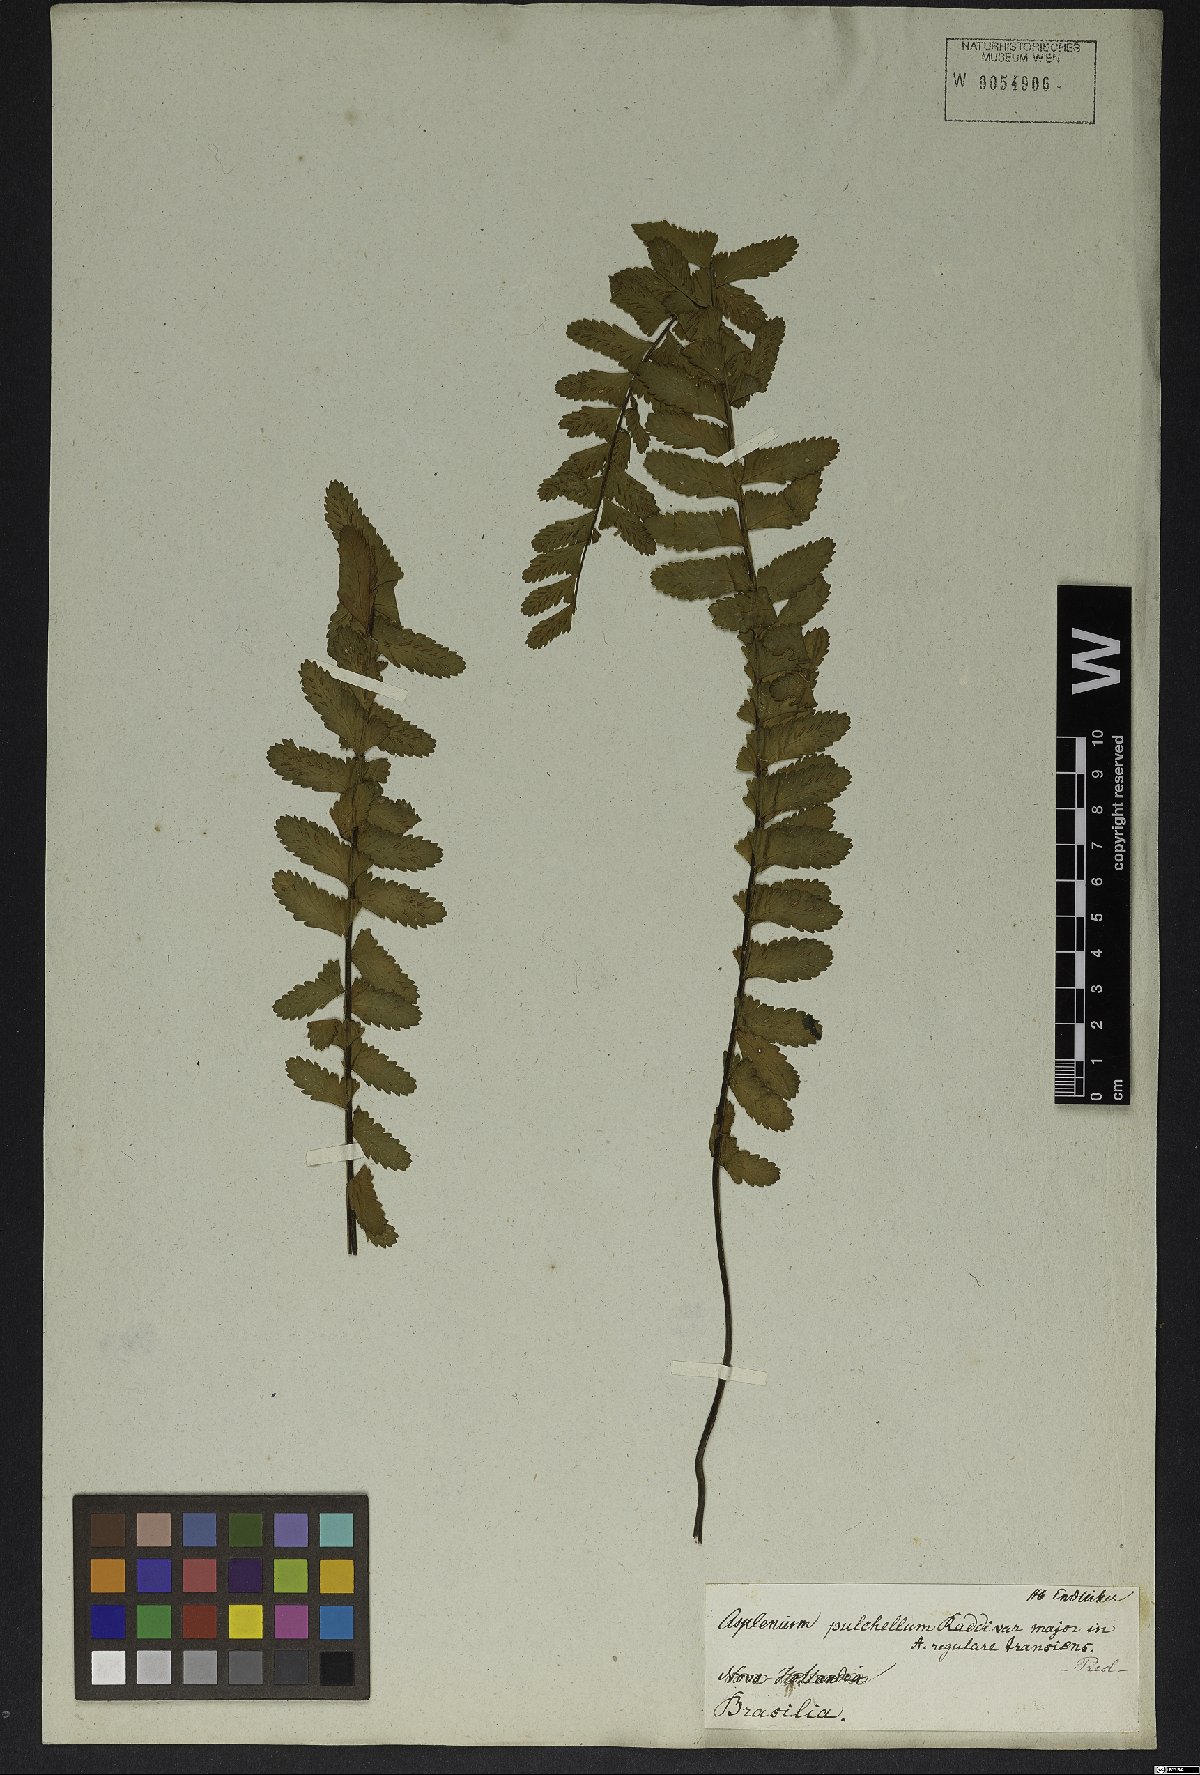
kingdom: Plantae
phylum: Tracheophyta
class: Polypodiopsida
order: Polypodiales
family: Aspleniaceae
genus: Asplenium
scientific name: Asplenium pulchellum
